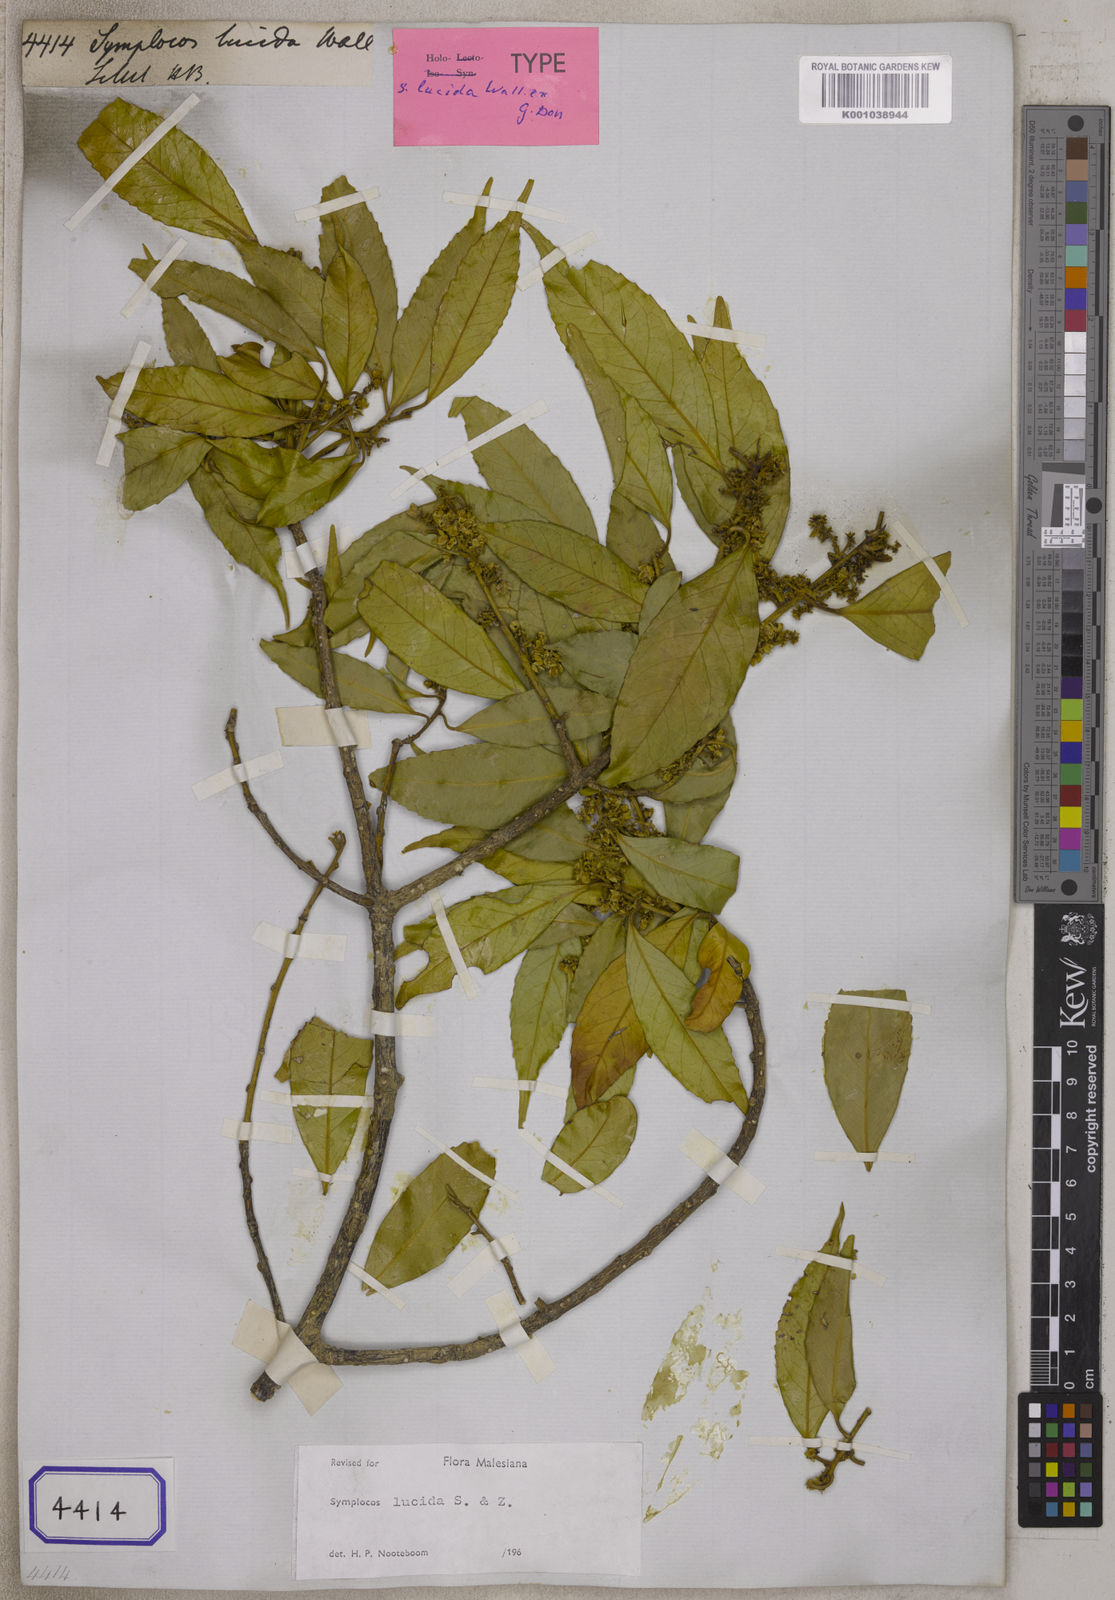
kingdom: Plantae
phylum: Tracheophyta
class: Magnoliopsida
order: Ericales
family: Symplocaceae
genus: Symplocos
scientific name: Symplocos
